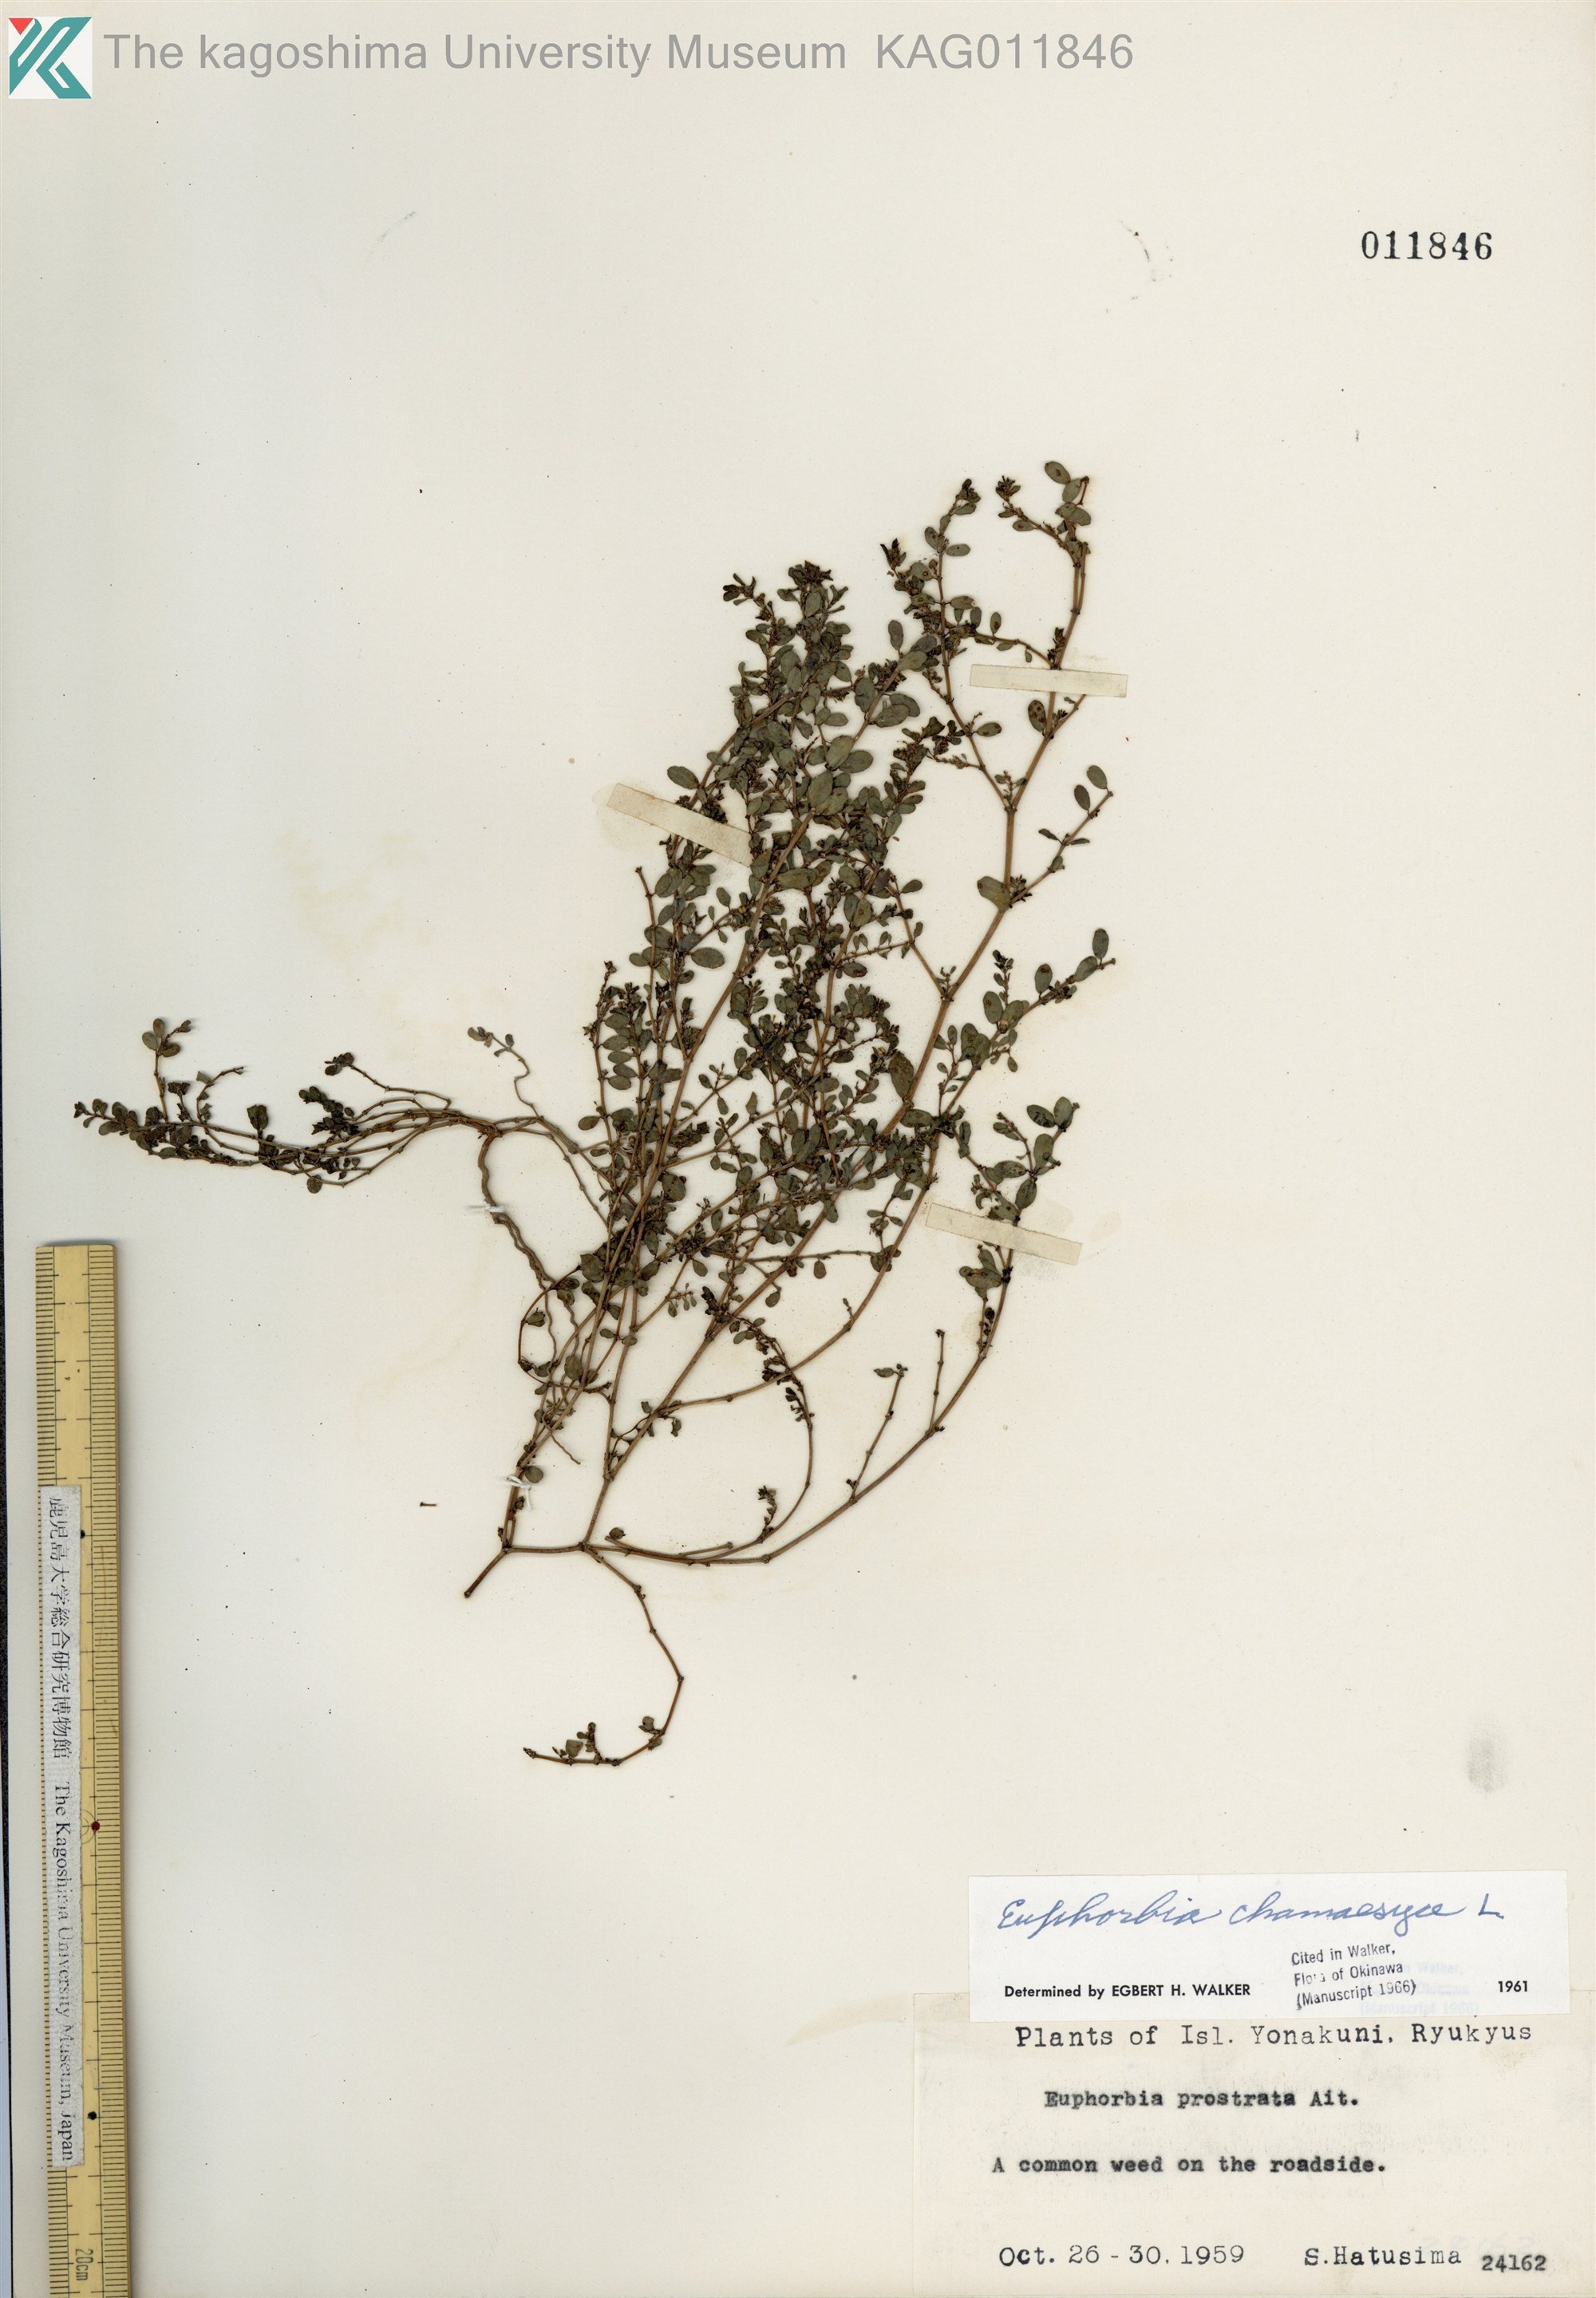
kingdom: Plantae
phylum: Tracheophyta
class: Magnoliopsida
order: Malpighiales
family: Euphorbiaceae
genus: Euphorbia
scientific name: Euphorbia prostrata
